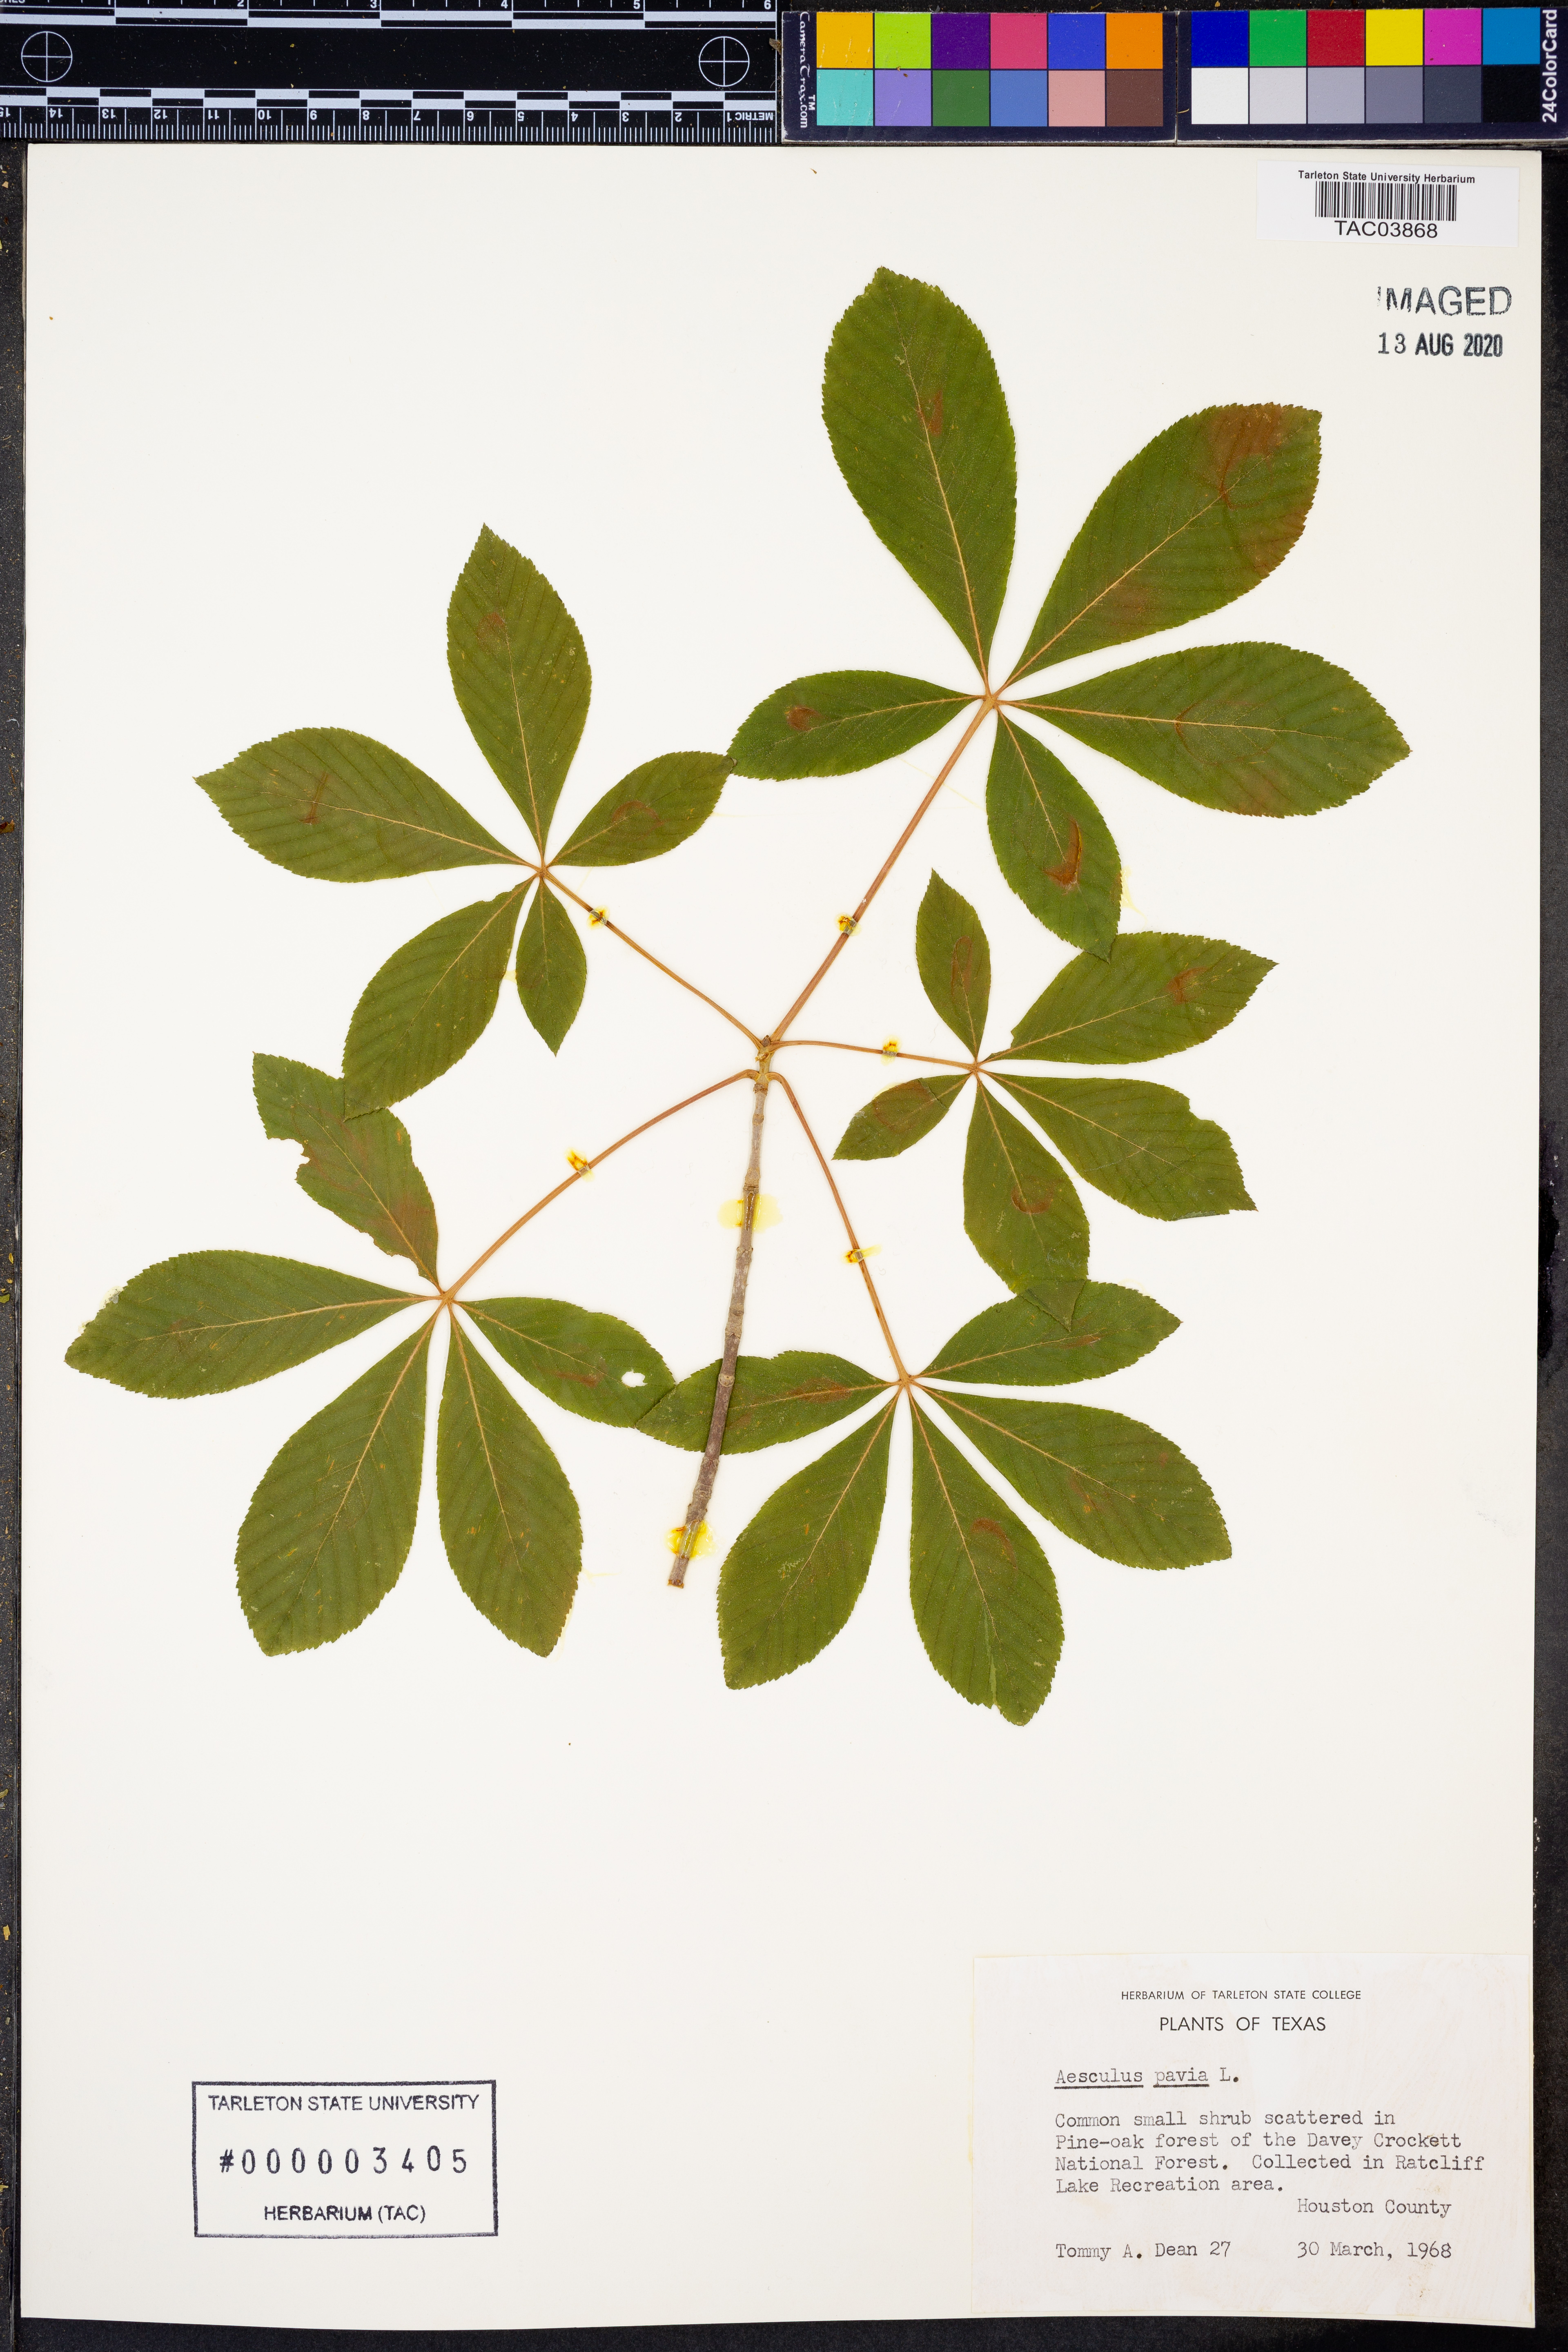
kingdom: Plantae
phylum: Tracheophyta
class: Magnoliopsida
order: Sapindales
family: Sapindaceae
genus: Aesculus
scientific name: Aesculus pavia
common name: Red buckeye
